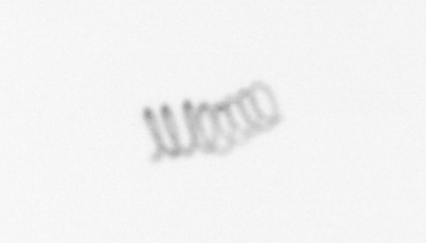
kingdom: Chromista
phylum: Ochrophyta
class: Bacillariophyceae
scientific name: Bacillariophyceae
